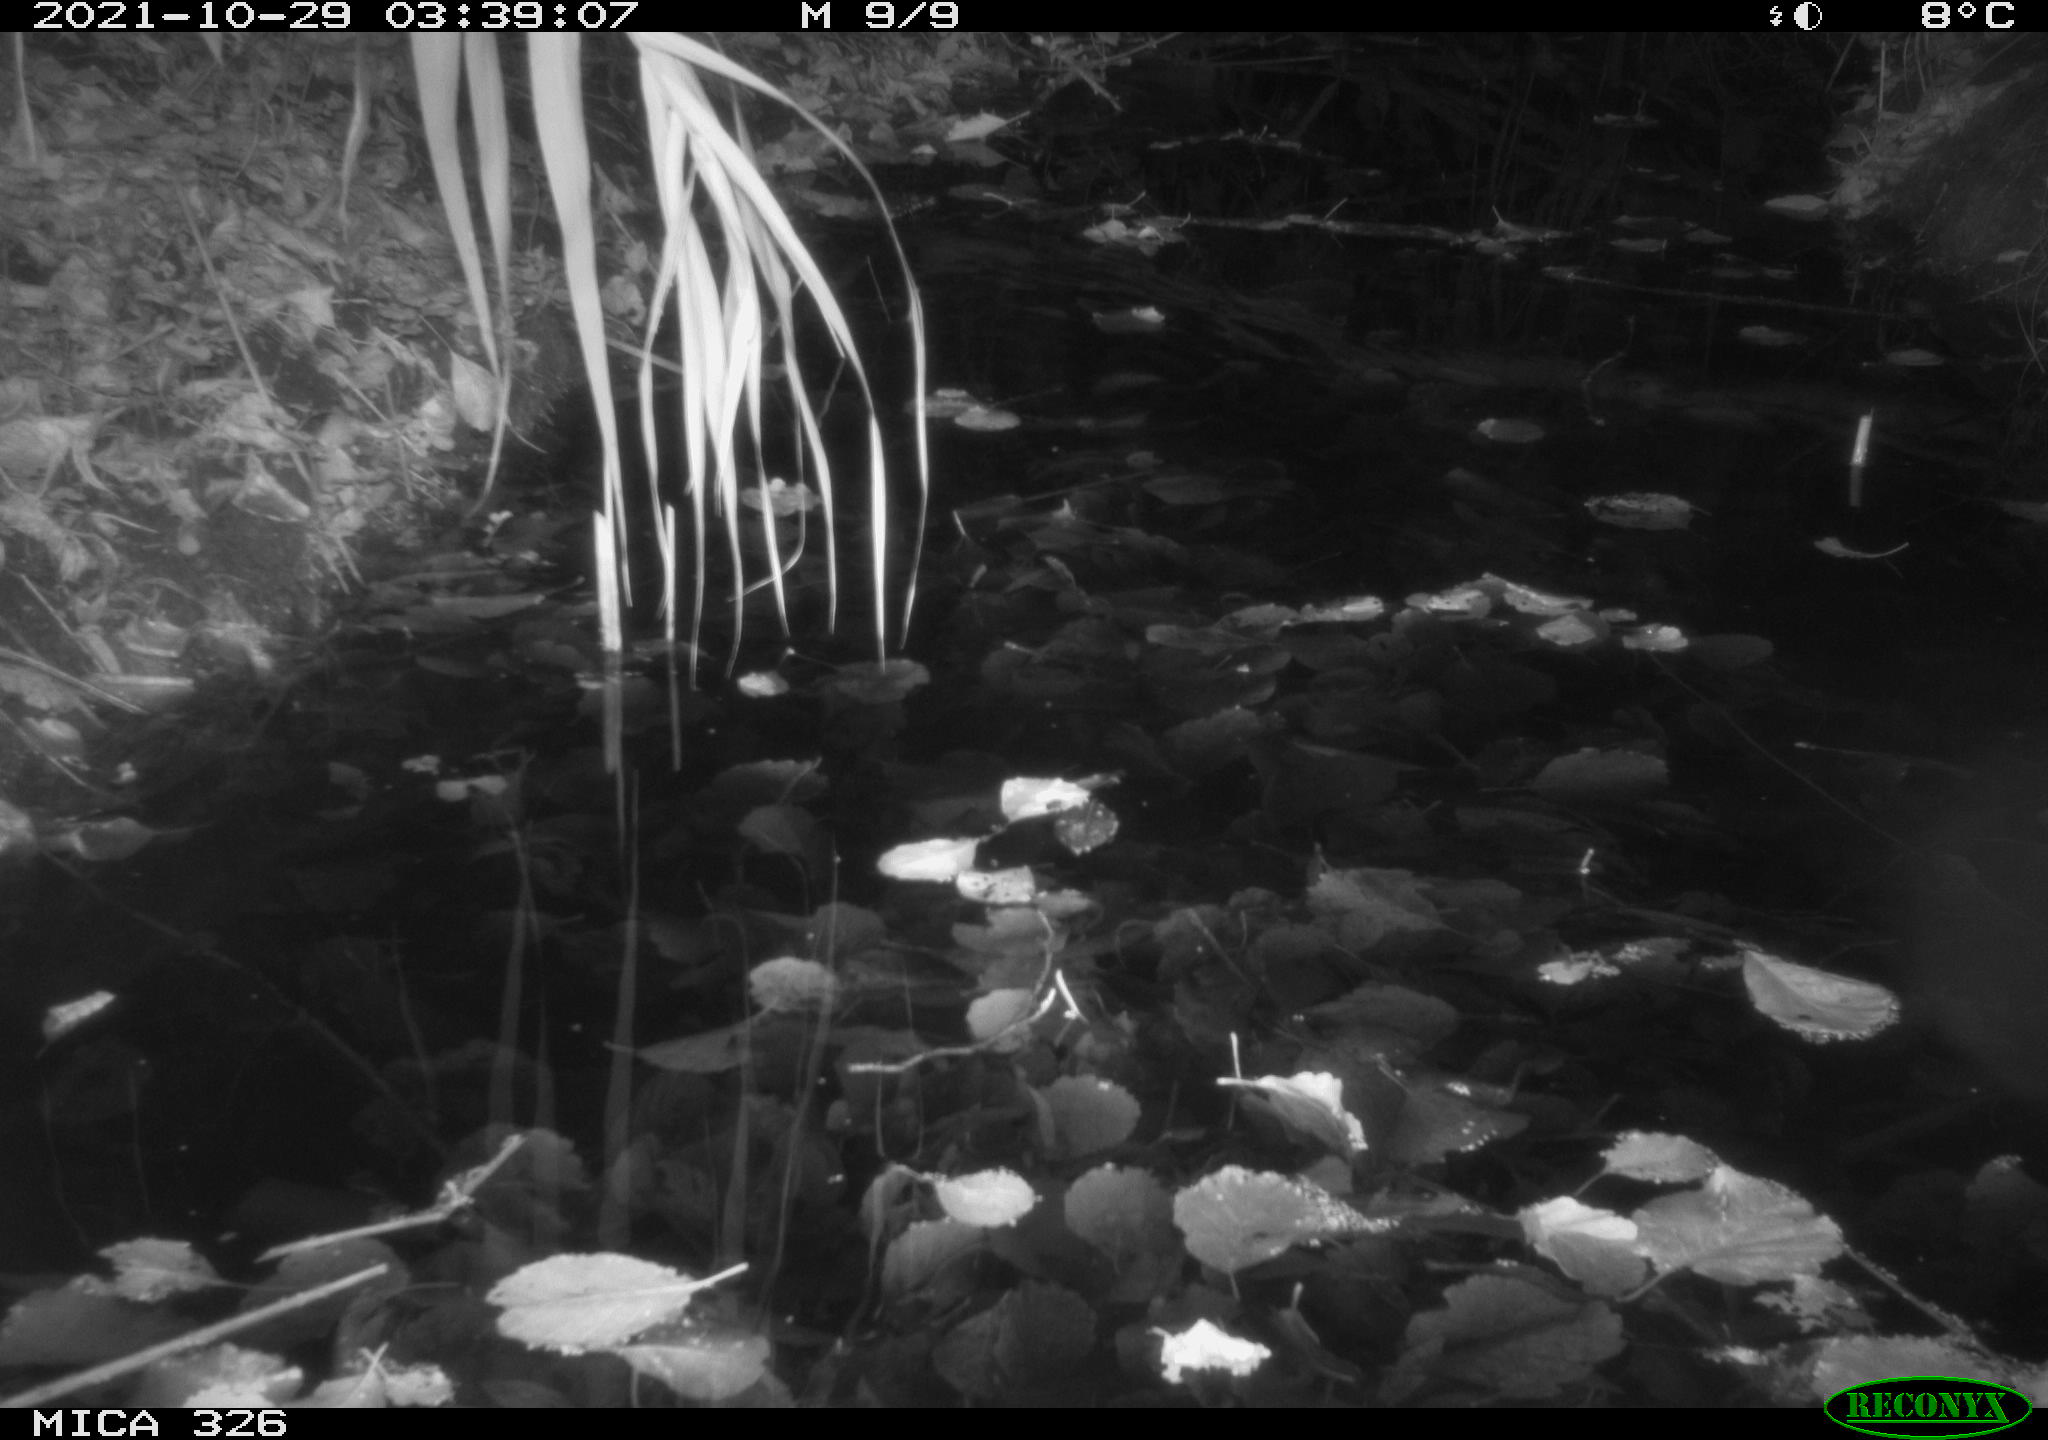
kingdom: Animalia
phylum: Chordata
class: Mammalia
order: Rodentia
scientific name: Rodentia
